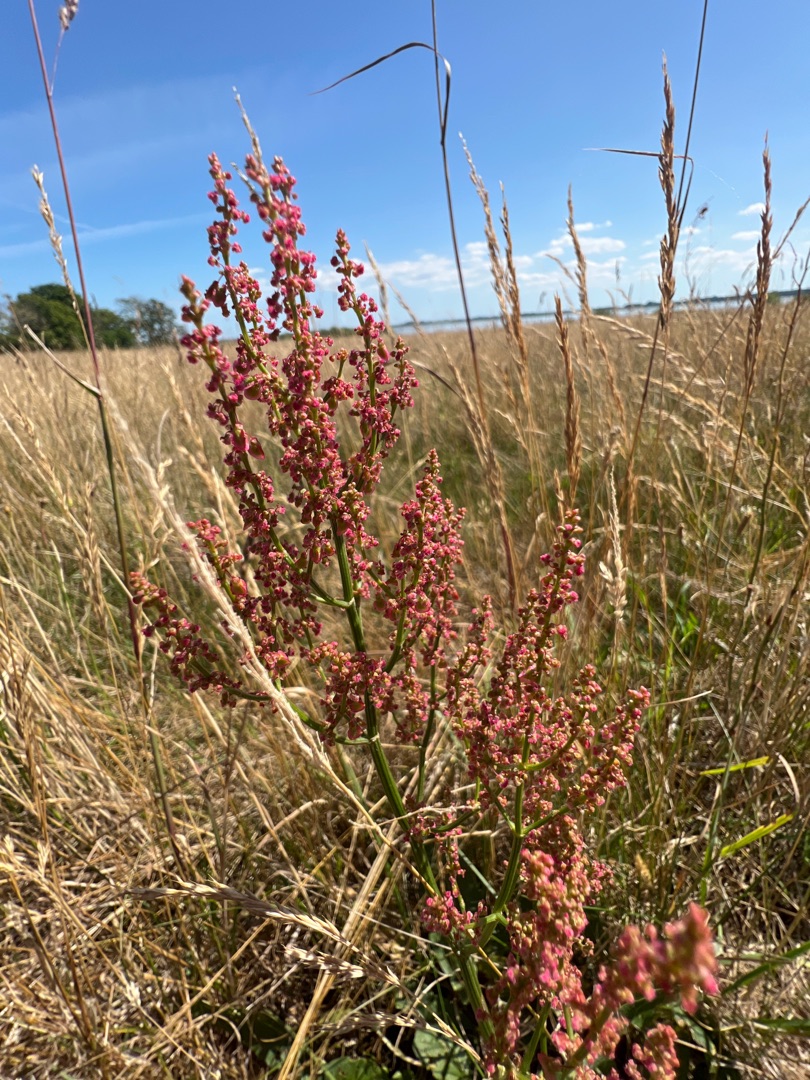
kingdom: Plantae
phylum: Tracheophyta
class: Magnoliopsida
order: Caryophyllales
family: Polygonaceae
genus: Rumex
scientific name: Rumex thyrsiflorus
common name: Dusk-syre
